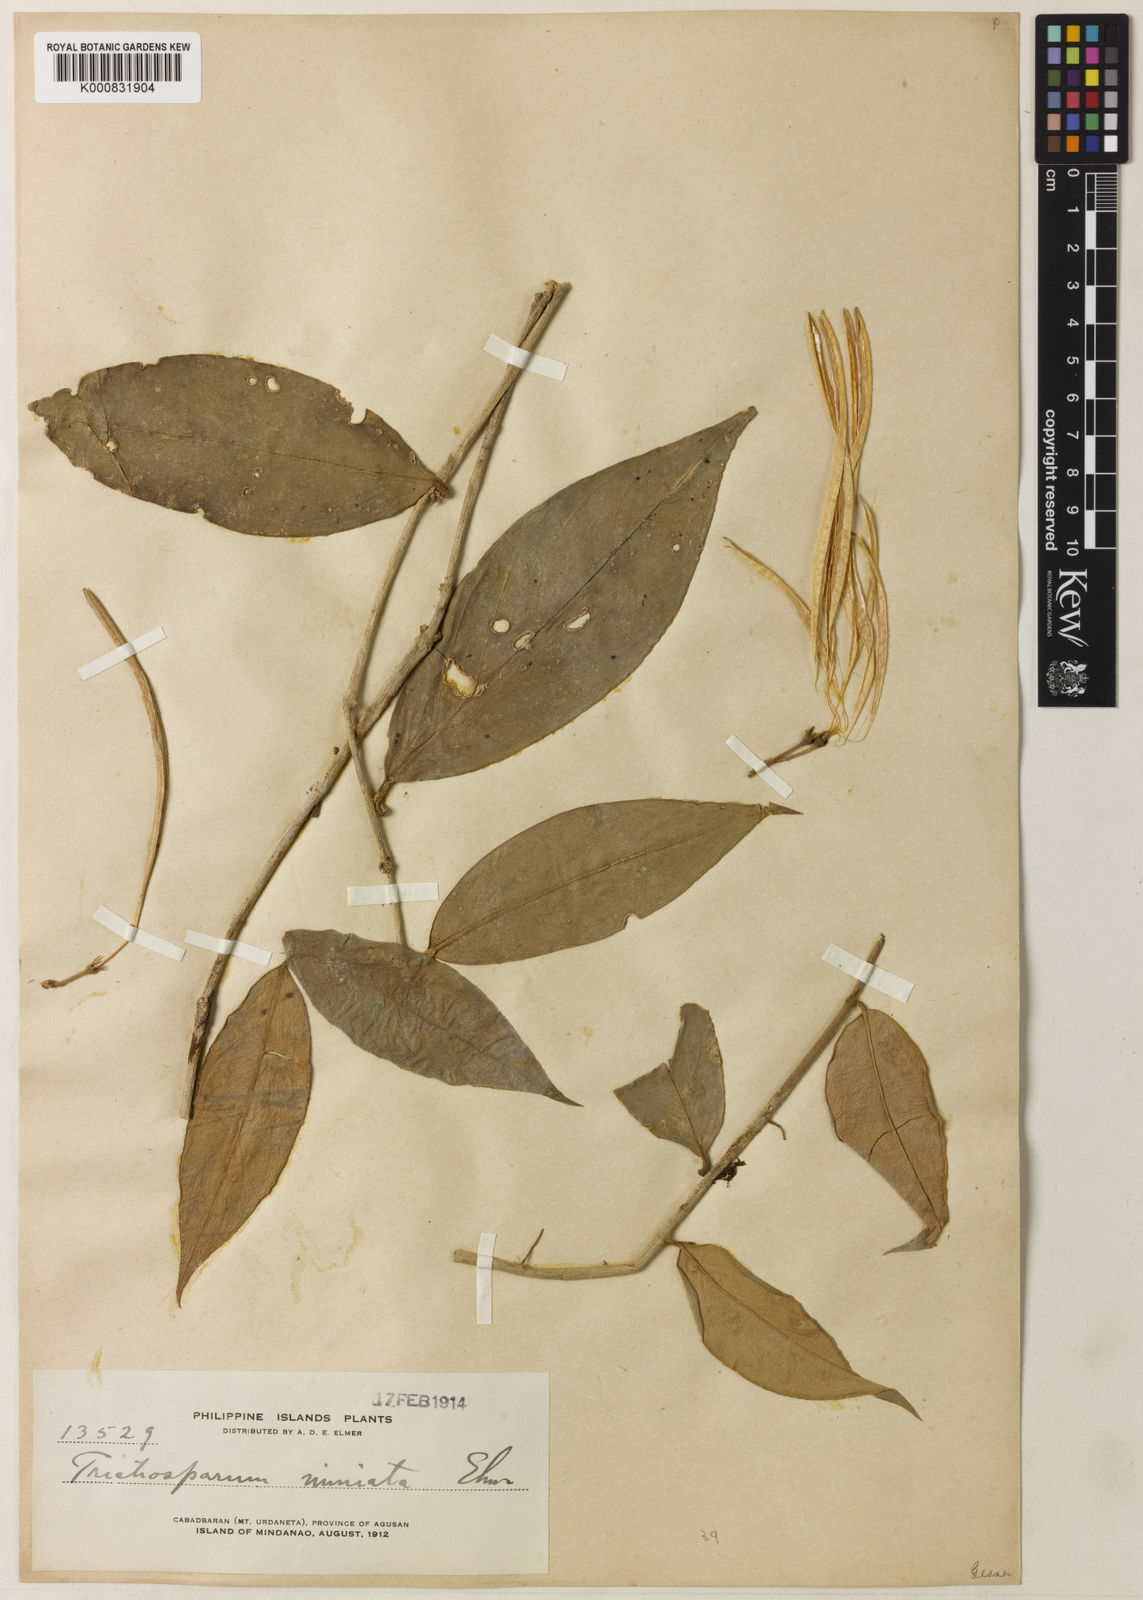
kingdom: Plantae
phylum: Tracheophyta
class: Magnoliopsida
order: Lamiales
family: Gesneriaceae
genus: Aeschynanthus
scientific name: Aeschynanthus miniatus
